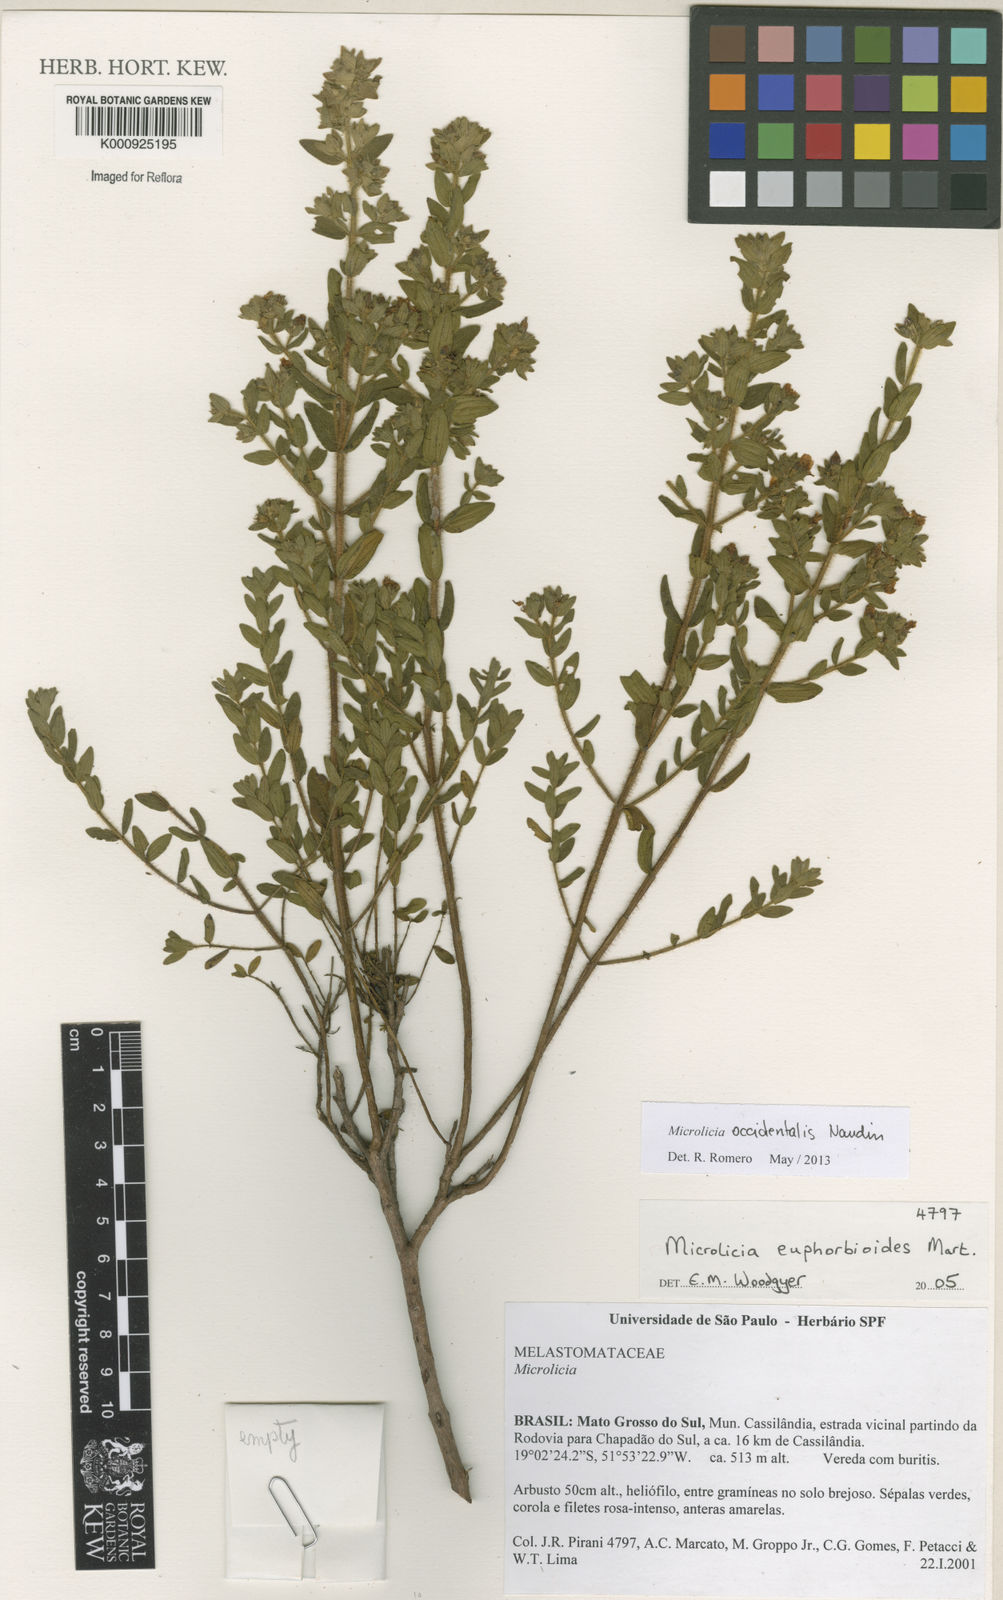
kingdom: Plantae
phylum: Tracheophyta
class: Magnoliopsida
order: Myrtales
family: Melastomataceae
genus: Microlicia
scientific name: Microlicia occidentalis
